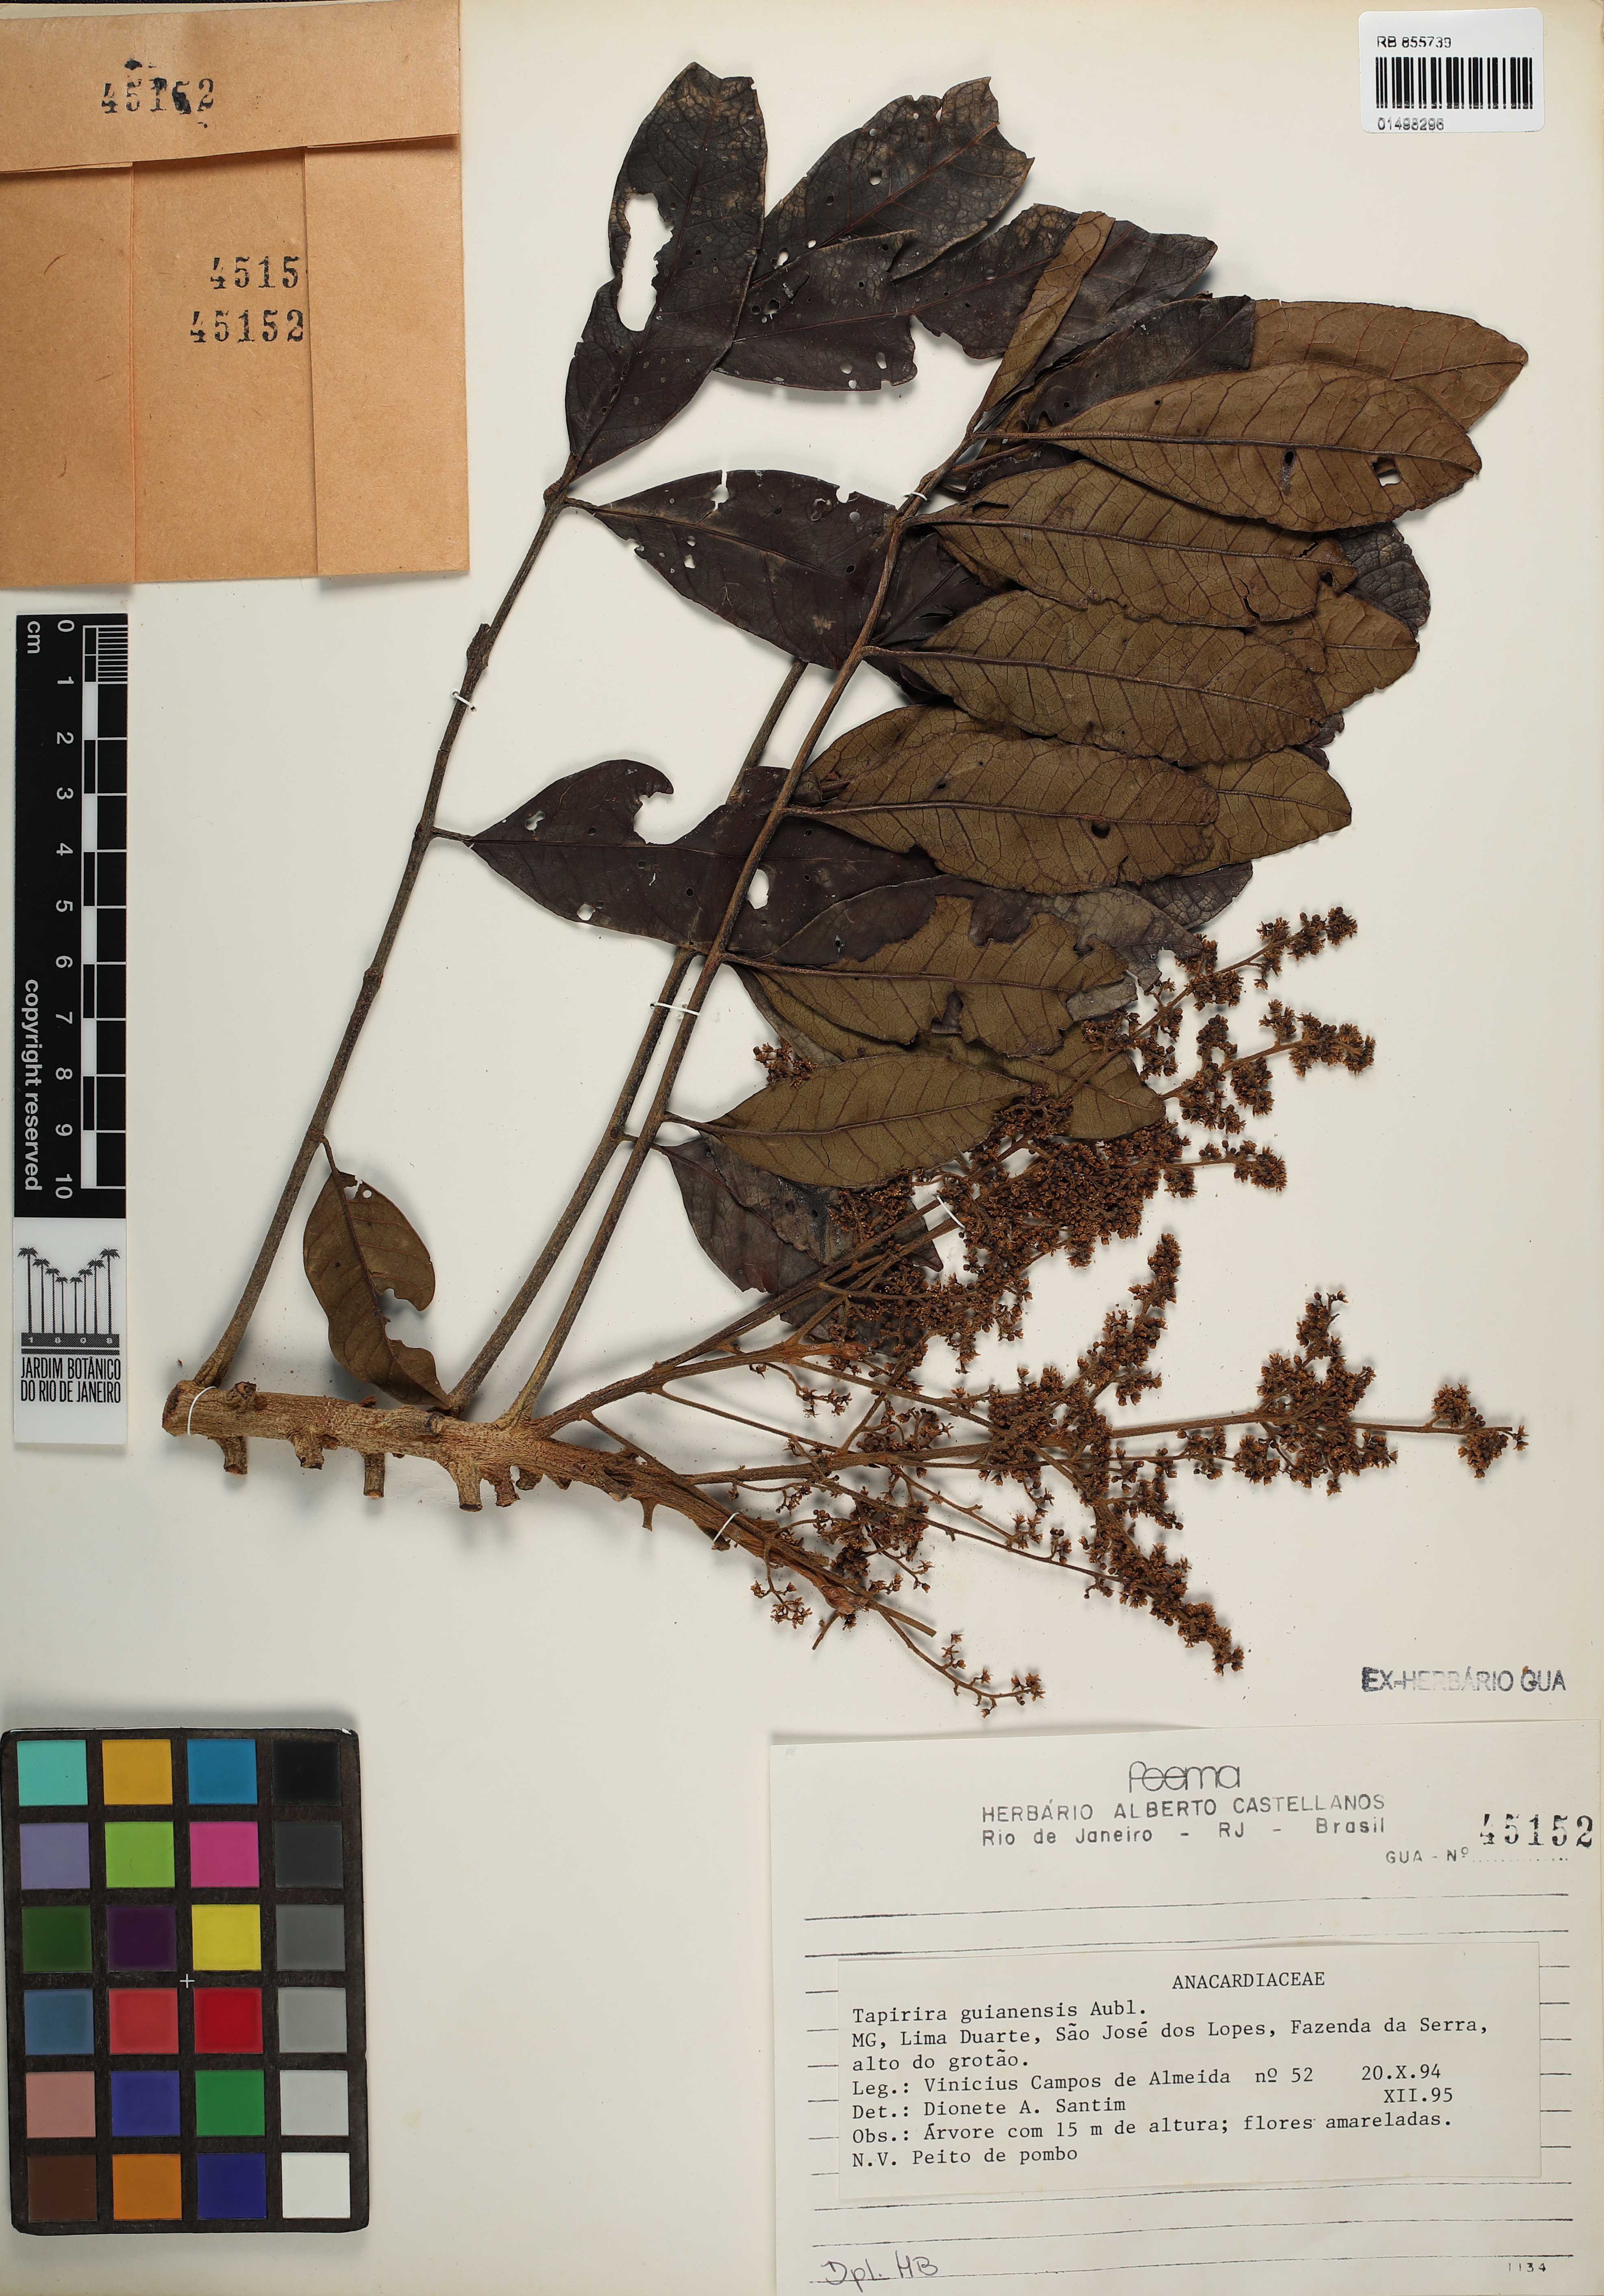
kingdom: Plantae
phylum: Tracheophyta
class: Magnoliopsida
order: Sapindales
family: Anacardiaceae
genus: Tapirira
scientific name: Tapirira guianensis
